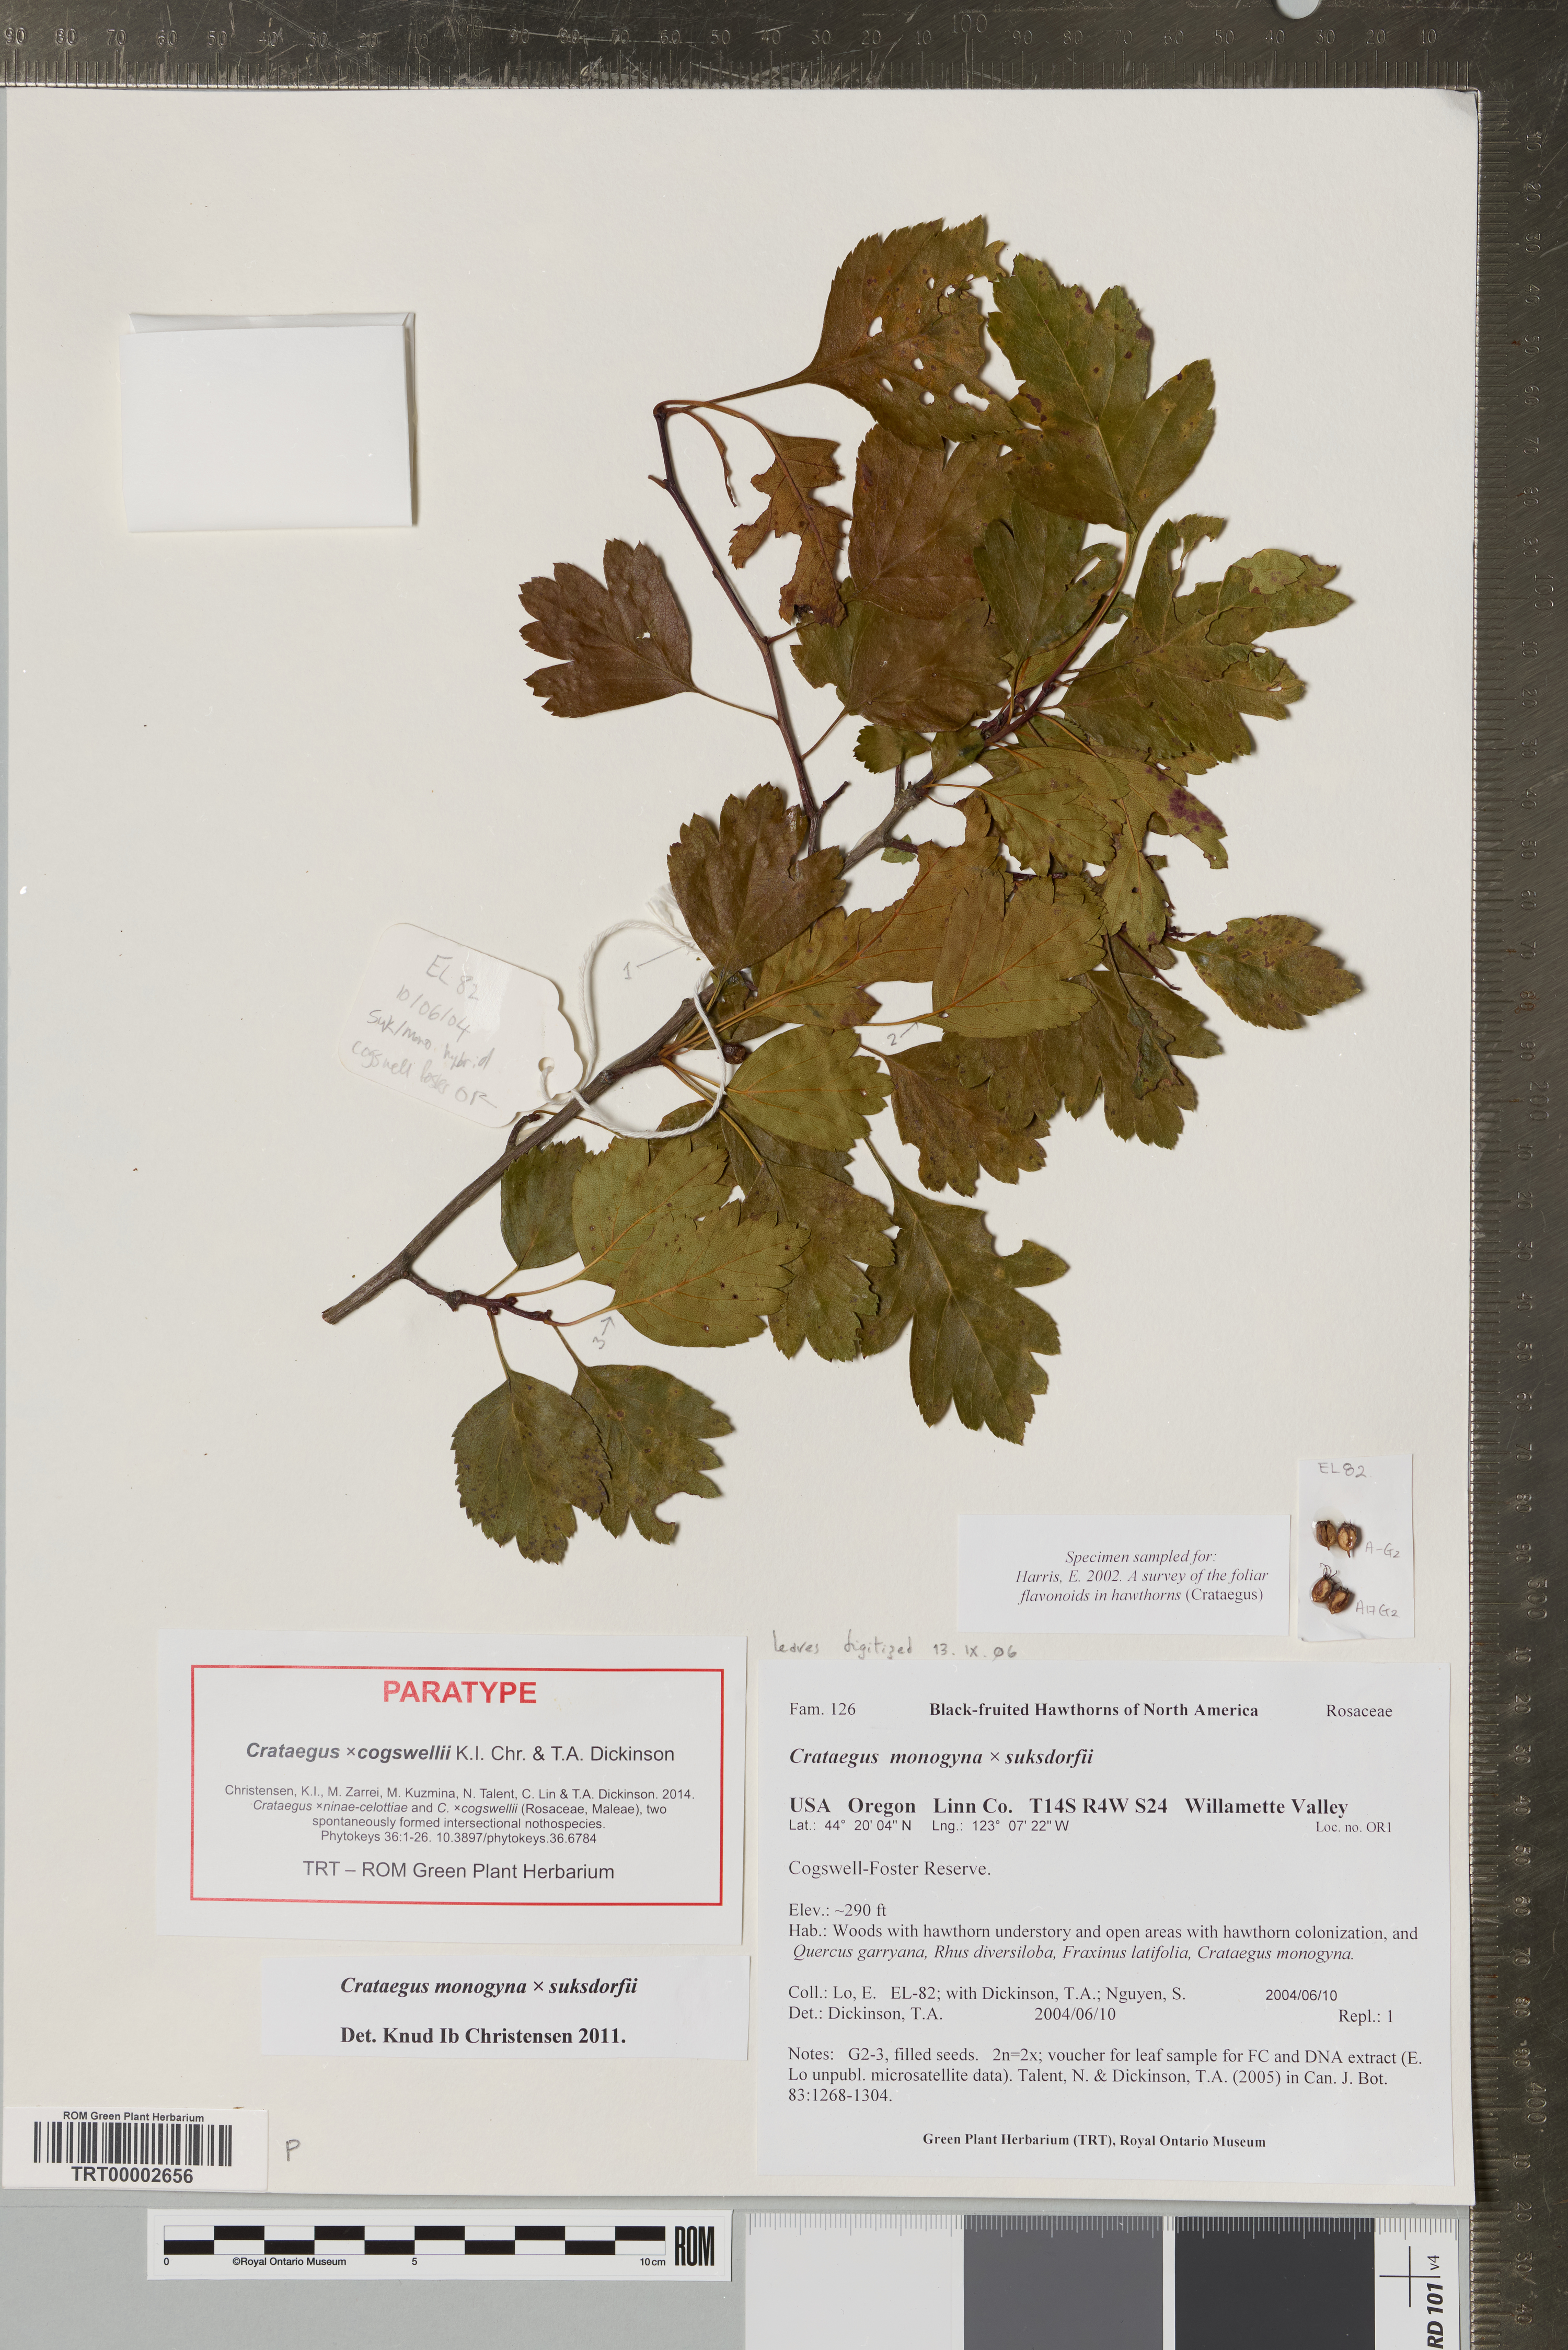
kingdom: Plantae
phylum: Tracheophyta
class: Magnoliopsida
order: Rosales
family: Rosaceae
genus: Crataegus
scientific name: Crataegus
